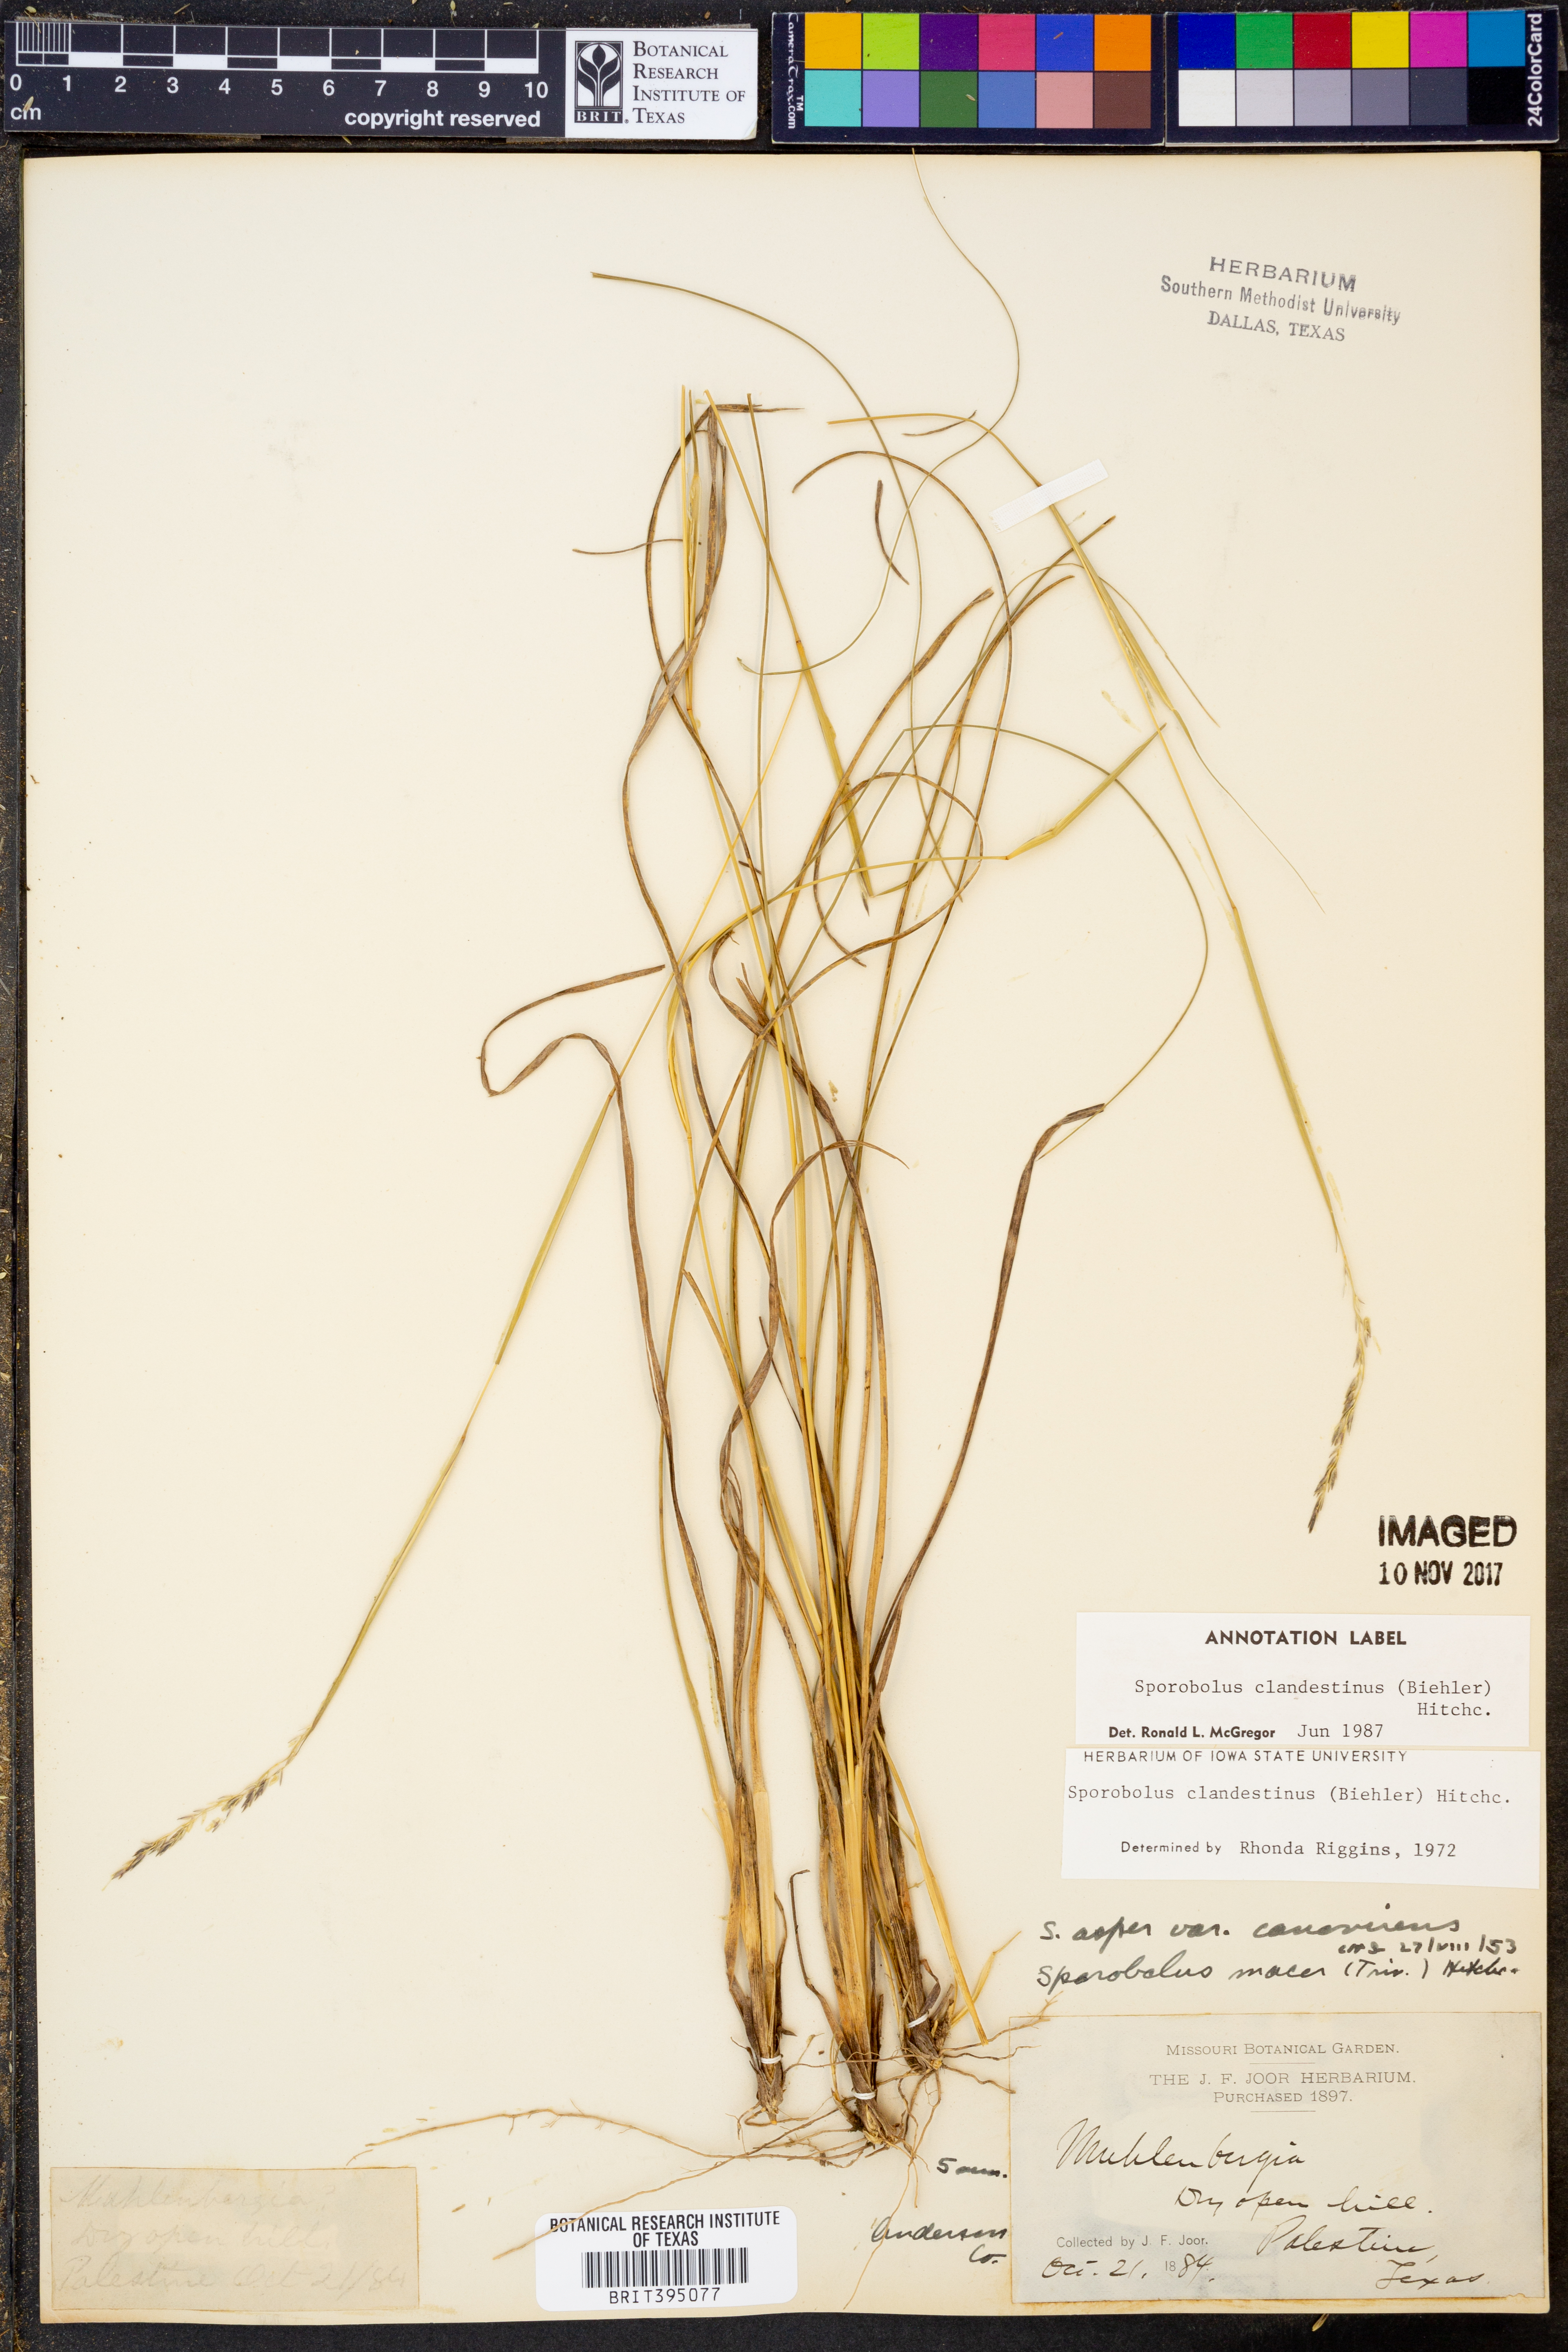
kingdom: Plantae
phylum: Tracheophyta
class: Liliopsida
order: Poales
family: Poaceae
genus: Sporobolus
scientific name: Sporobolus clandestinus
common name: Hidden dropseed
